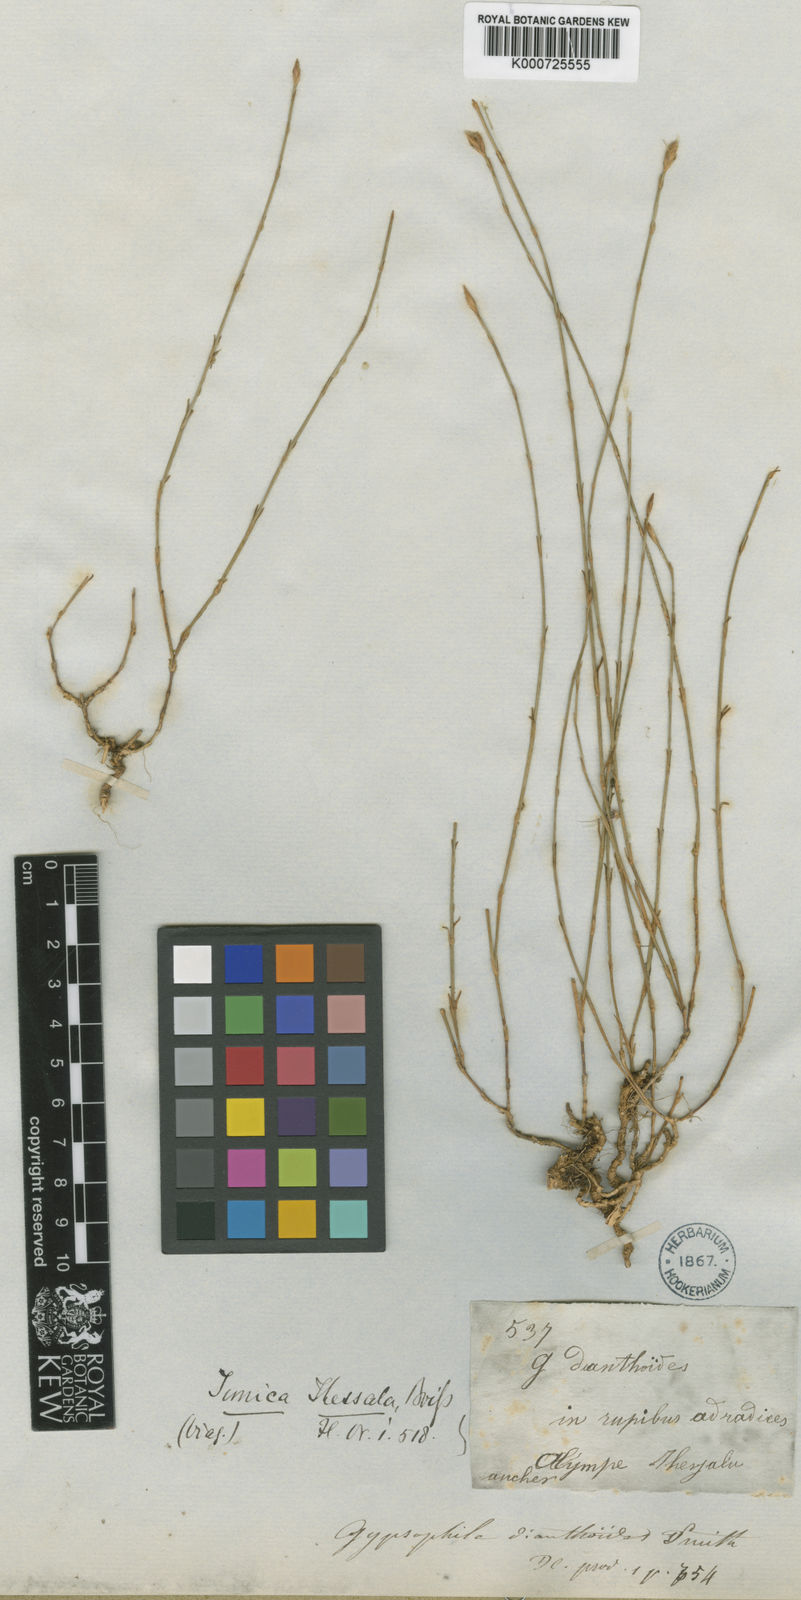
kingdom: Plantae
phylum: Tracheophyta
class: Magnoliopsida
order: Caryophyllales
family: Caryophyllaceae
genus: Petrorhagia
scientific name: Petrorhagia thessala
